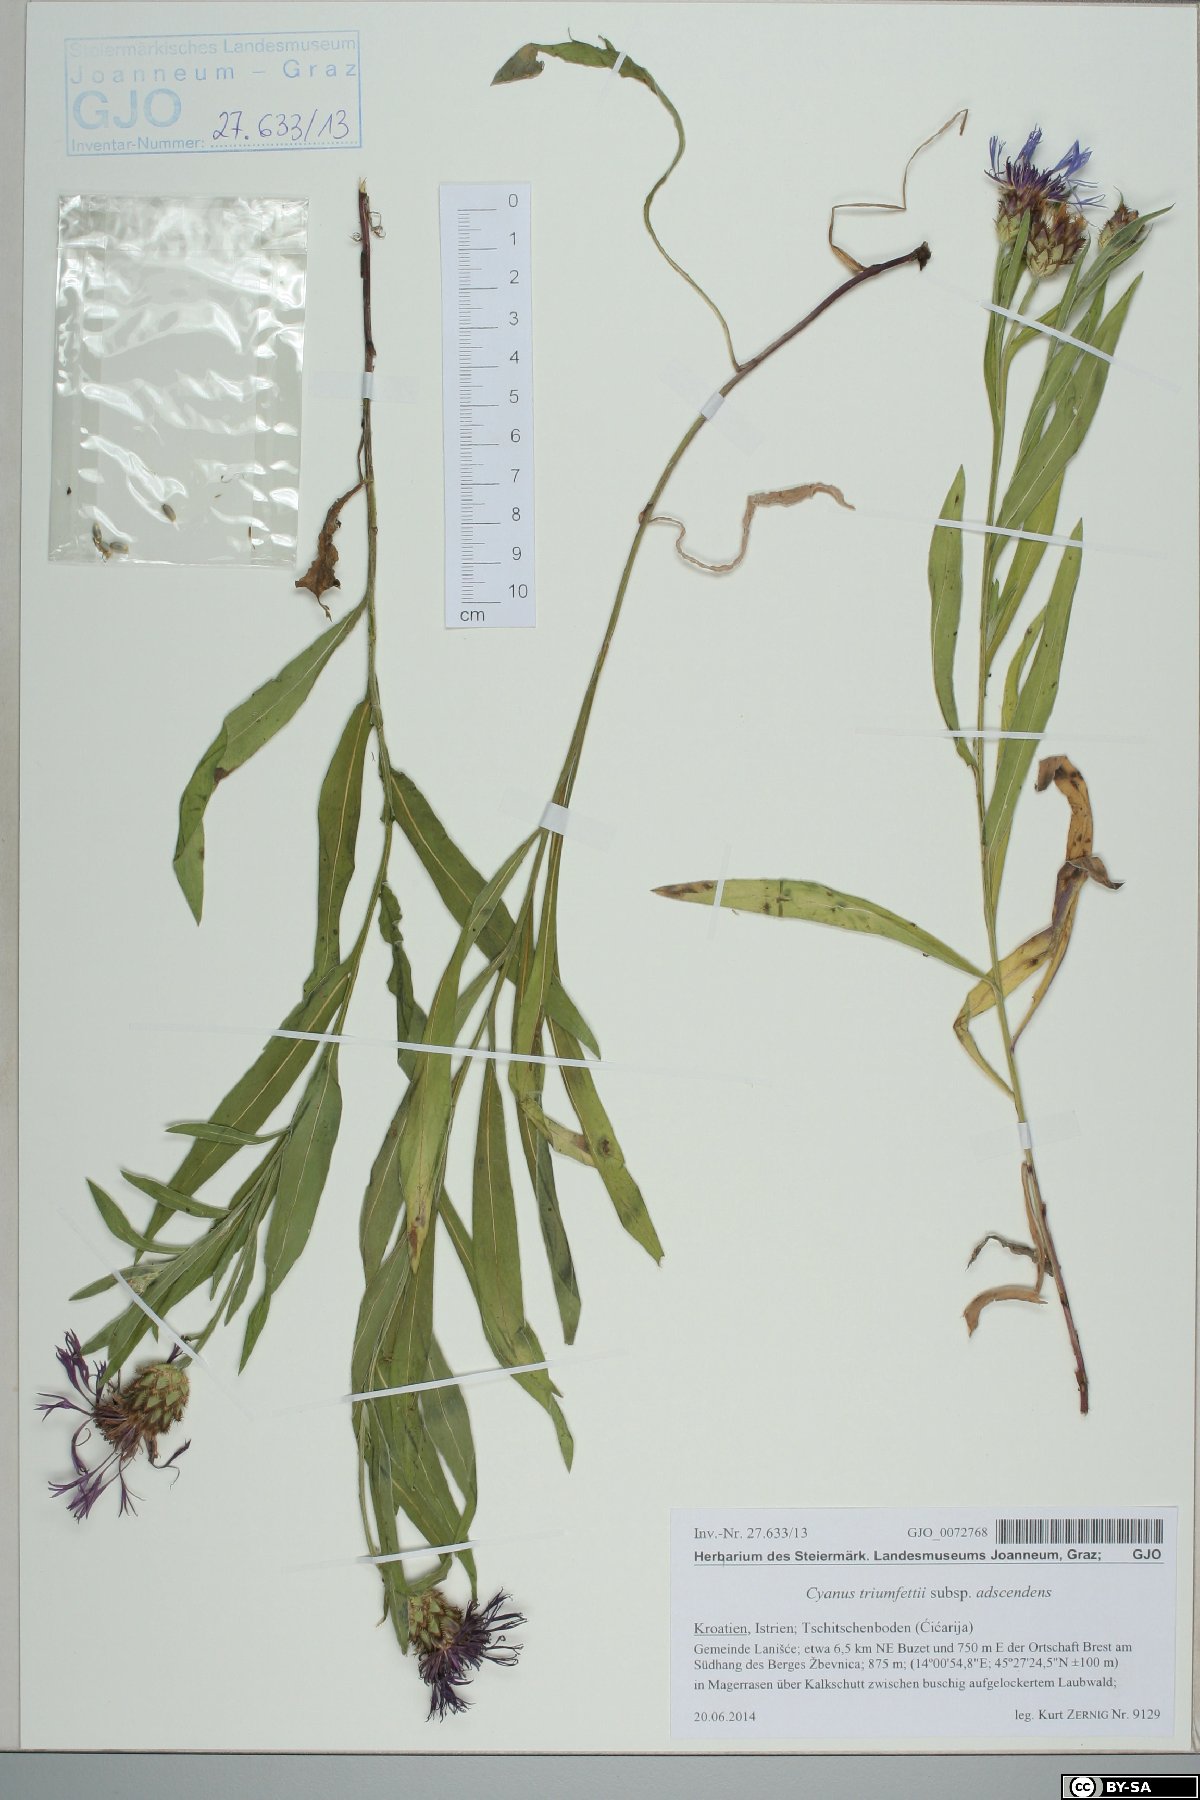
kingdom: Plantae
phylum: Tracheophyta
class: Magnoliopsida
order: Asterales
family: Asteraceae
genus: Centaurea
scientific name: Centaurea triumfettii
